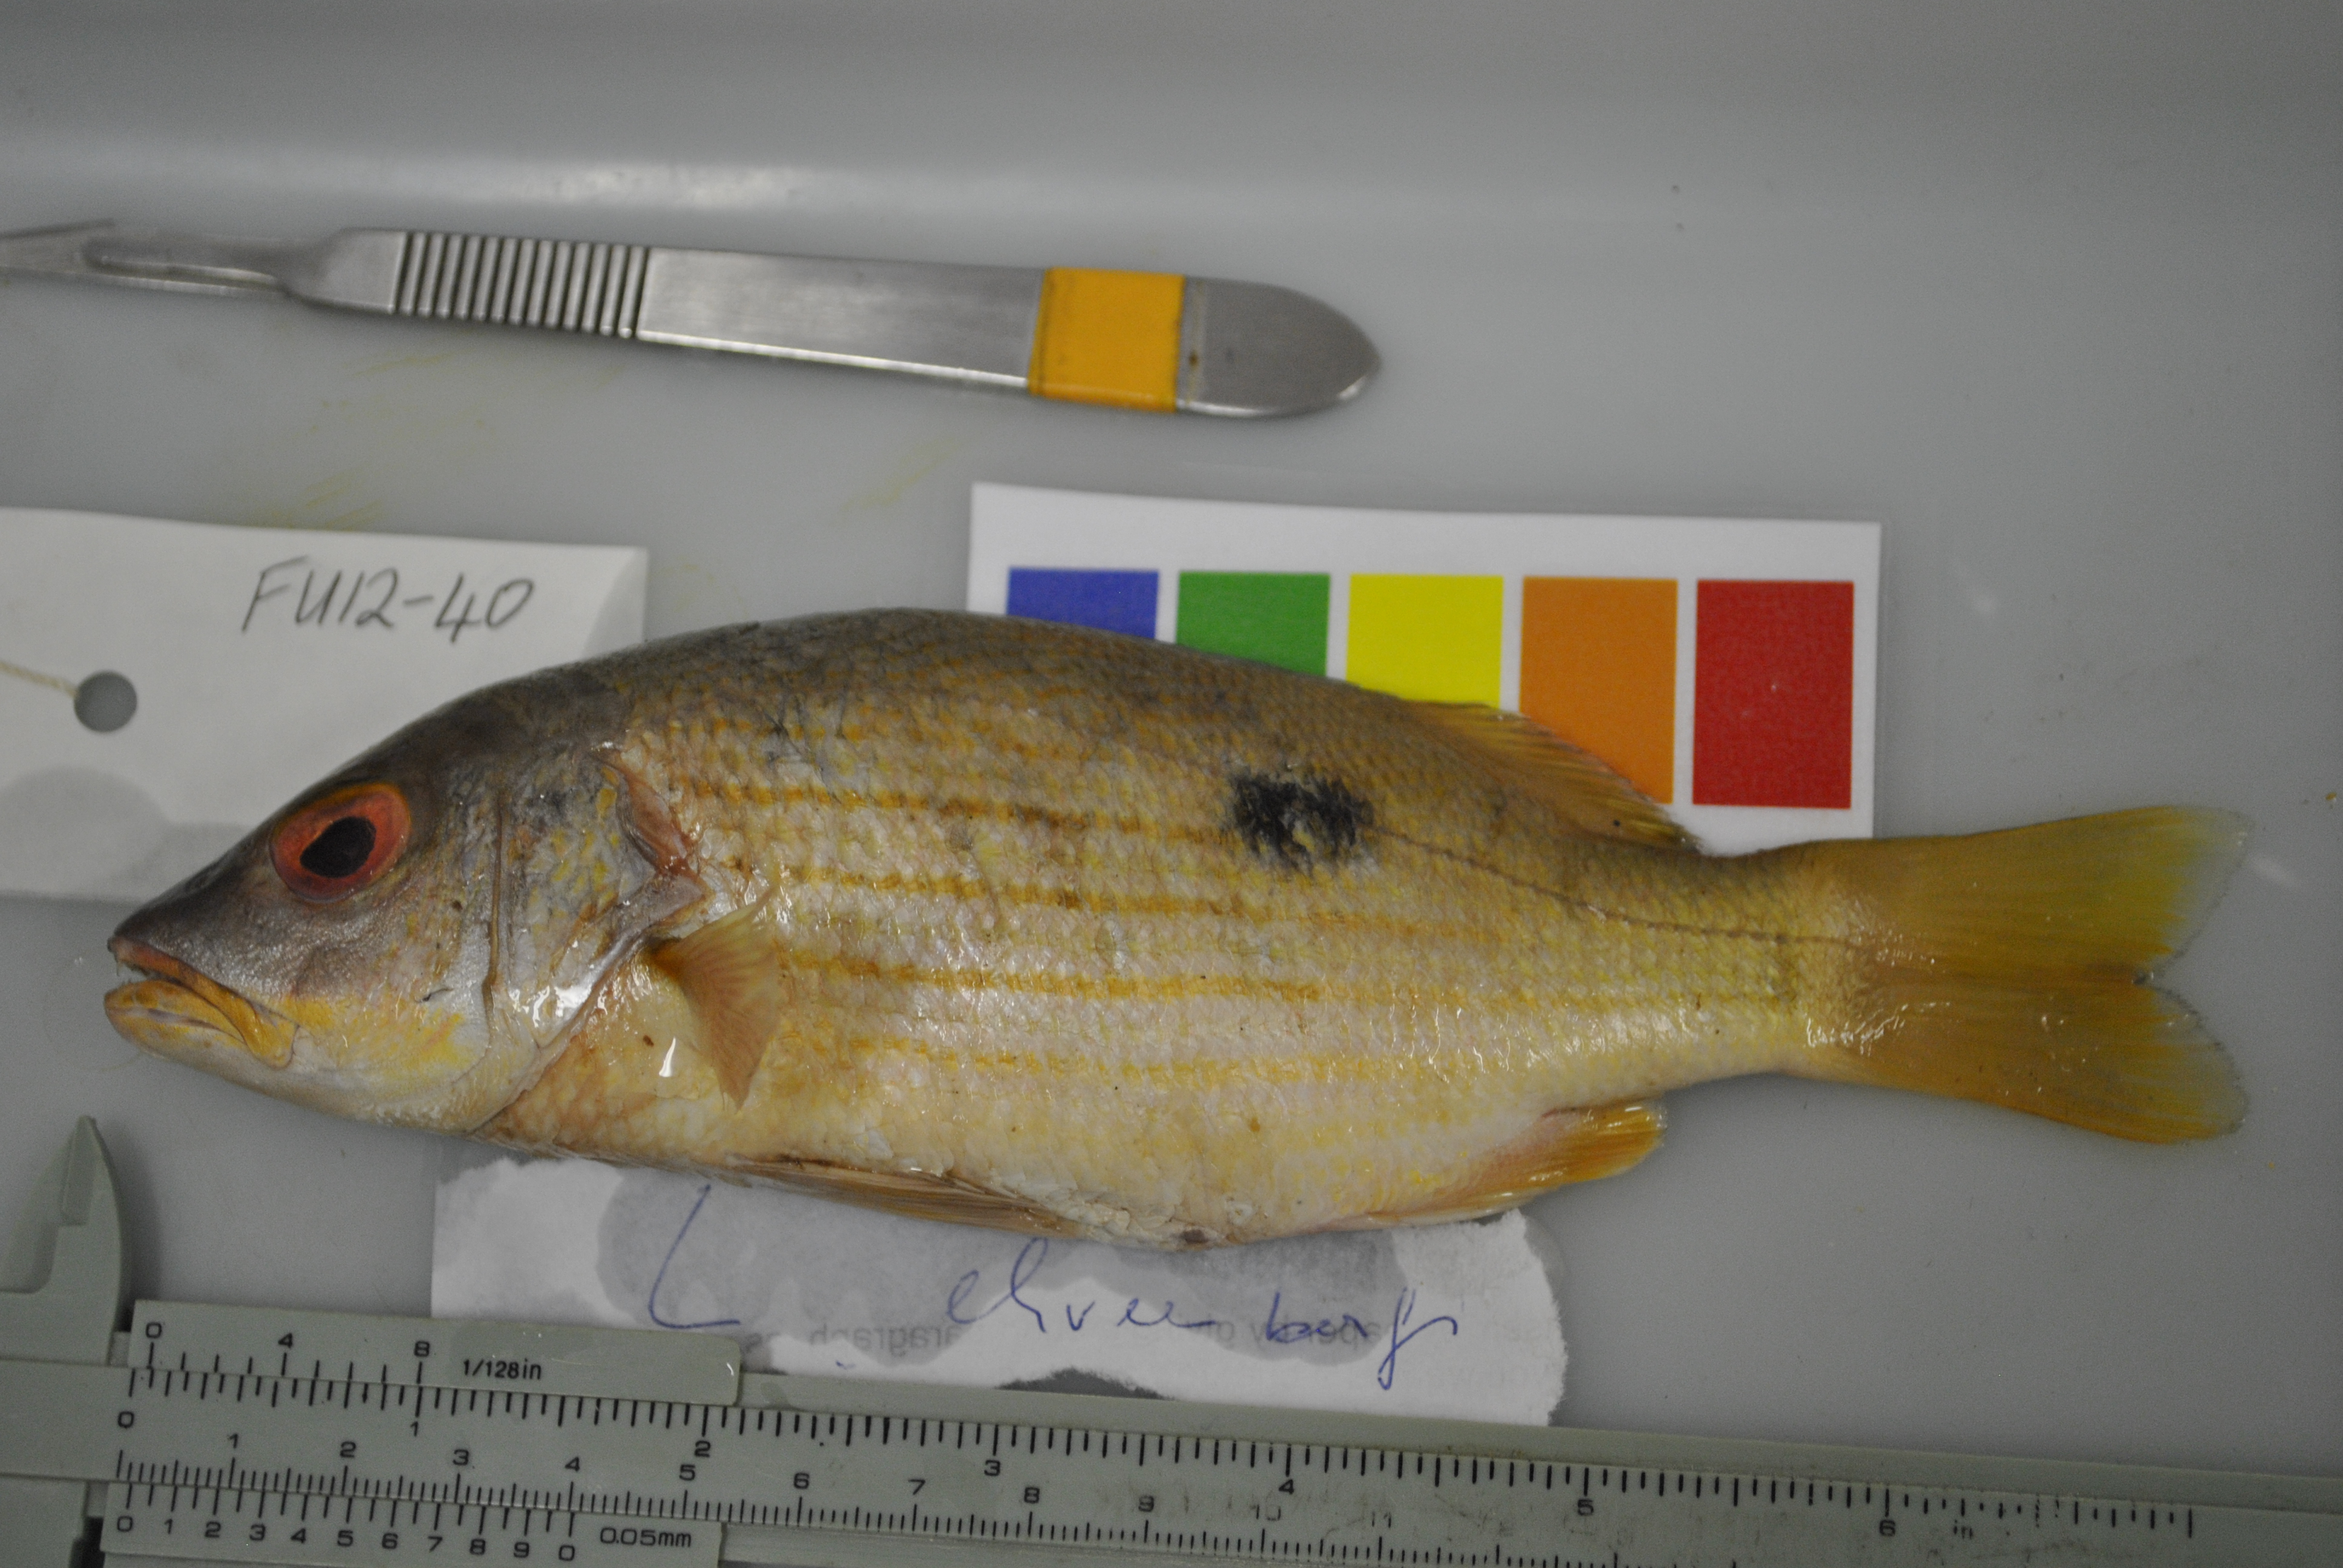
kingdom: Animalia
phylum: Chordata
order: Perciformes
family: Lutjanidae
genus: Lutjanus
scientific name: Lutjanus ehrenbergii
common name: Blackspot snapper
